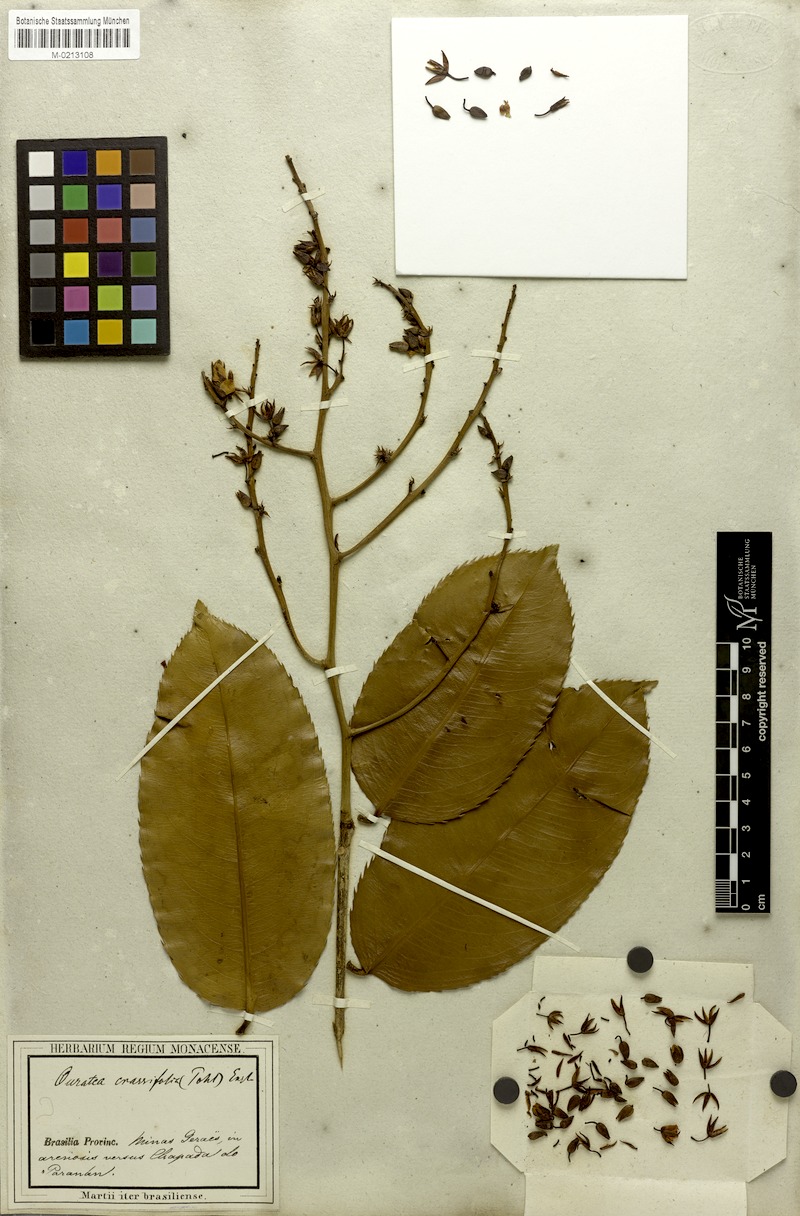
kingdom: Plantae
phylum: Tracheophyta
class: Magnoliopsida
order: Malpighiales
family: Ochnaceae
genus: Ouratea
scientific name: Ouratea crassifolia
